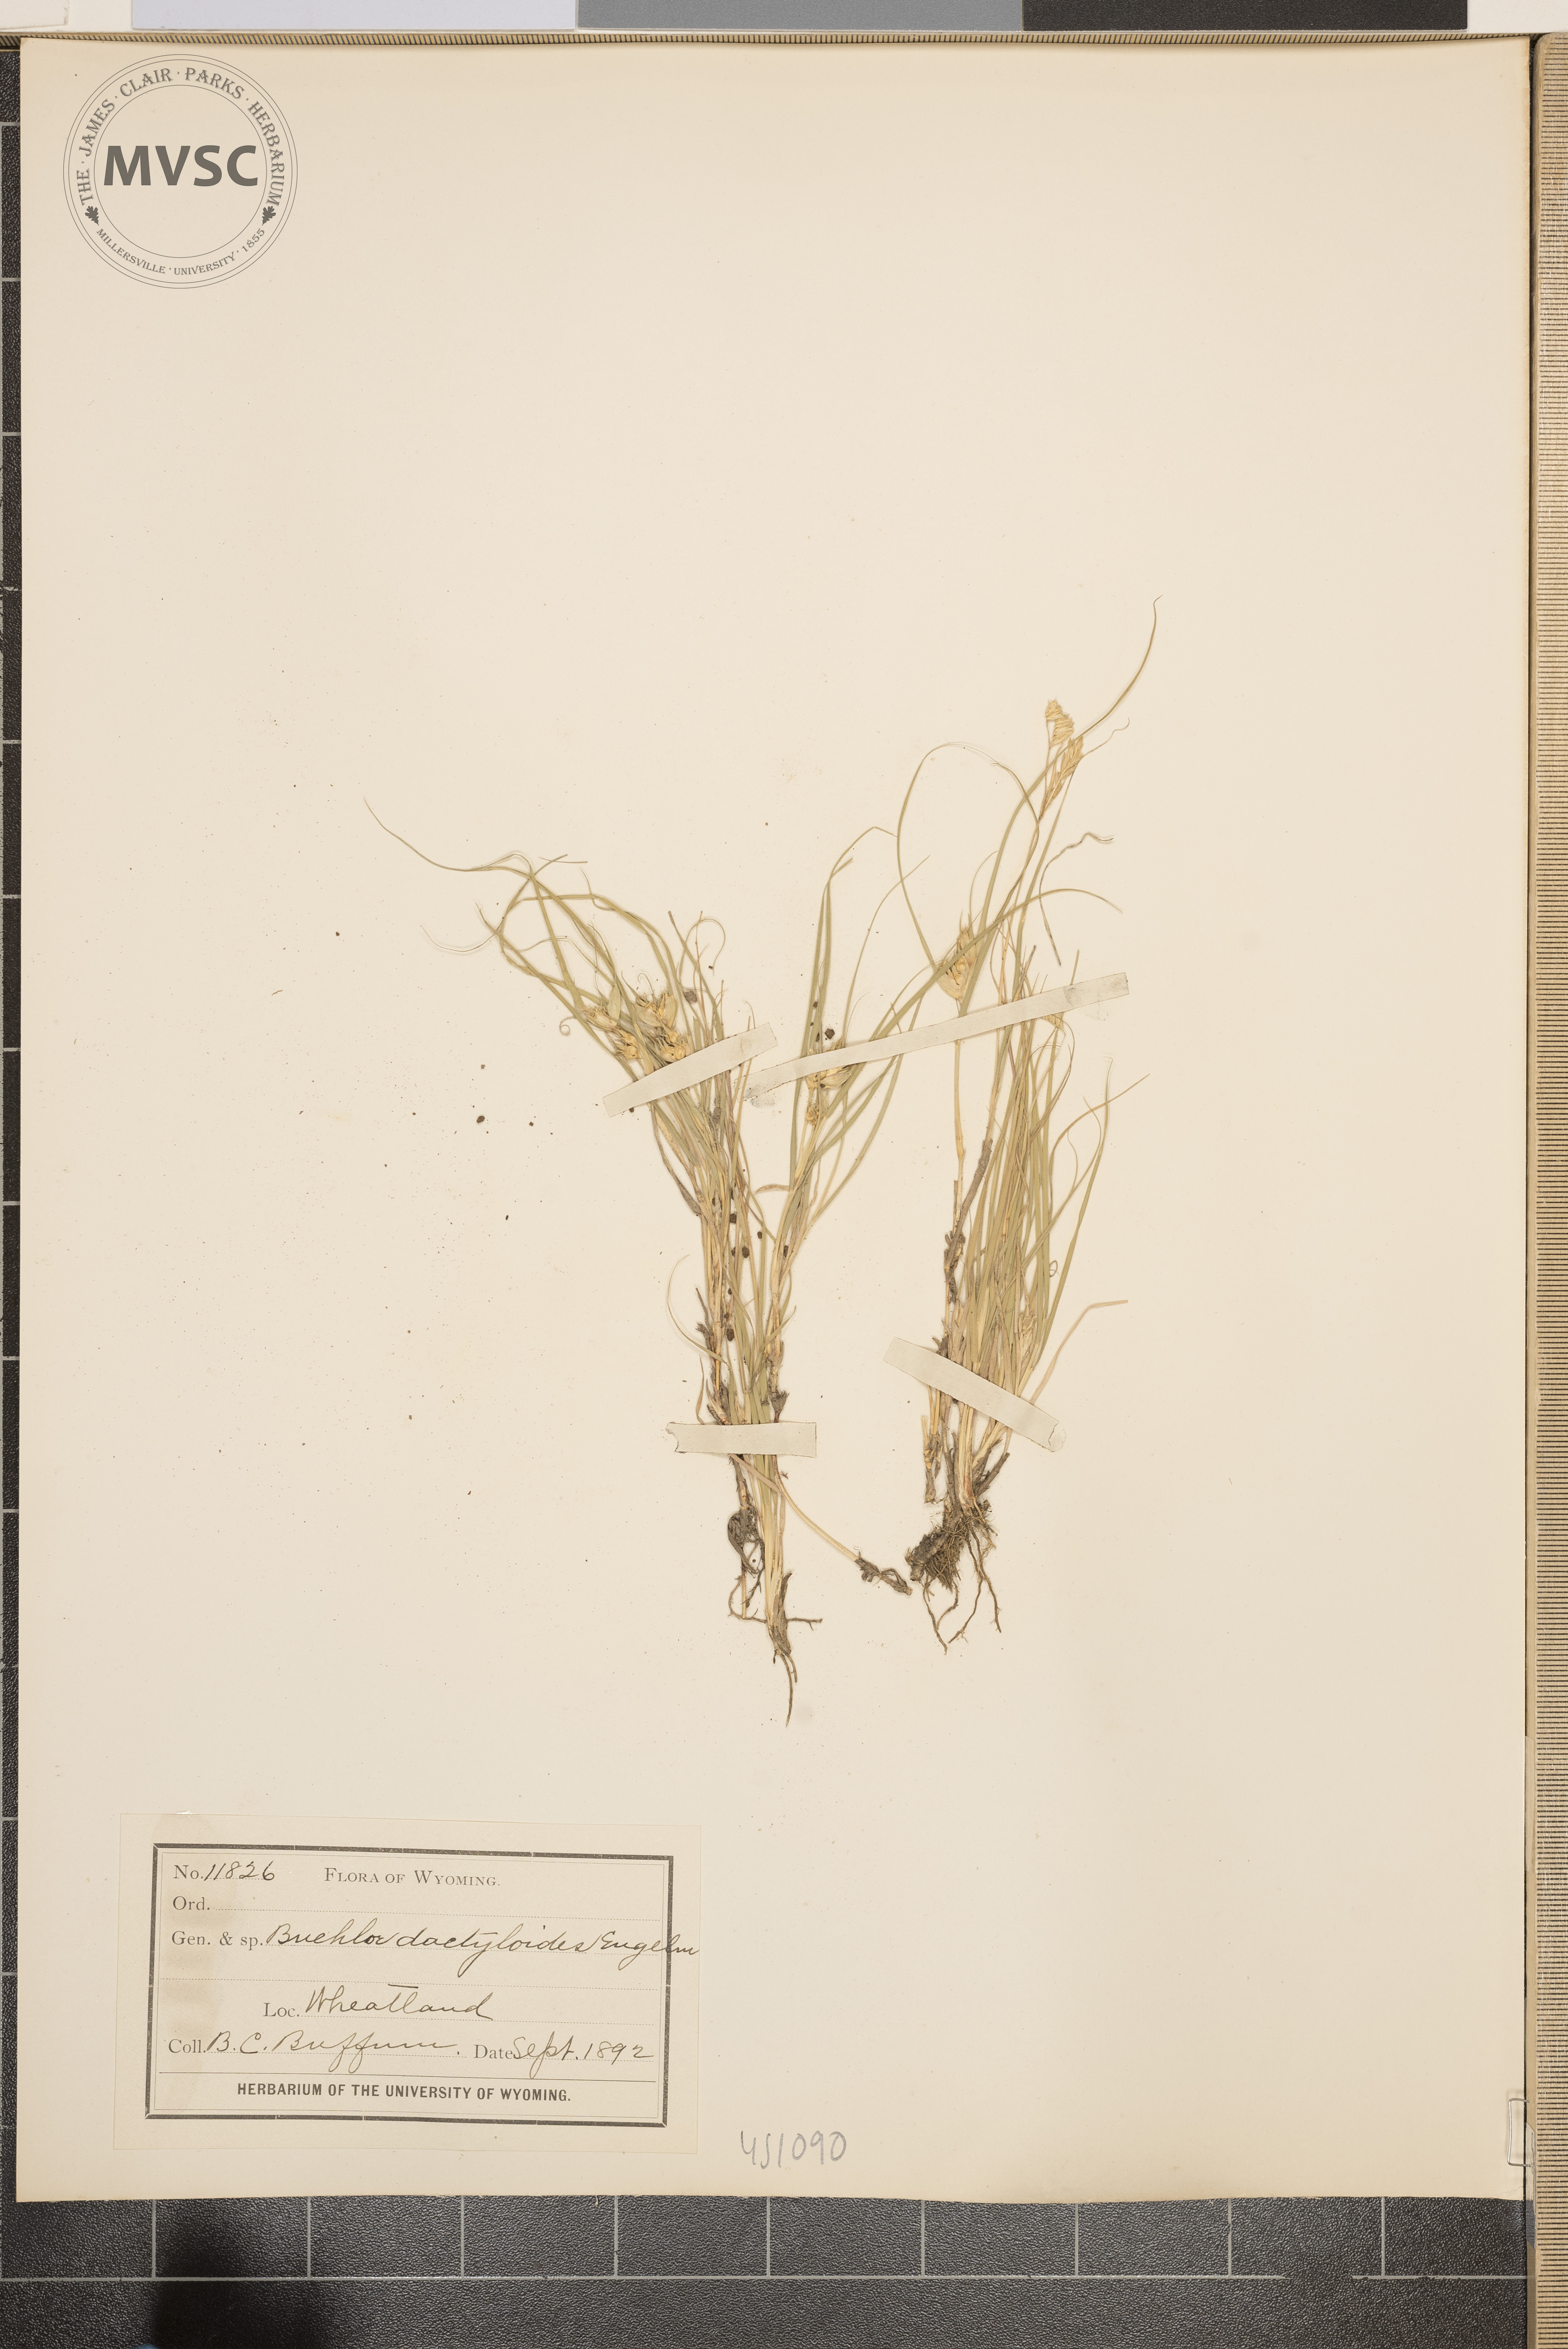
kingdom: Plantae
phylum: Tracheophyta
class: Liliopsida
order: Poales
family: Poaceae
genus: Bouteloua
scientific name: Bouteloua dactyloides
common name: Buffalo grass
